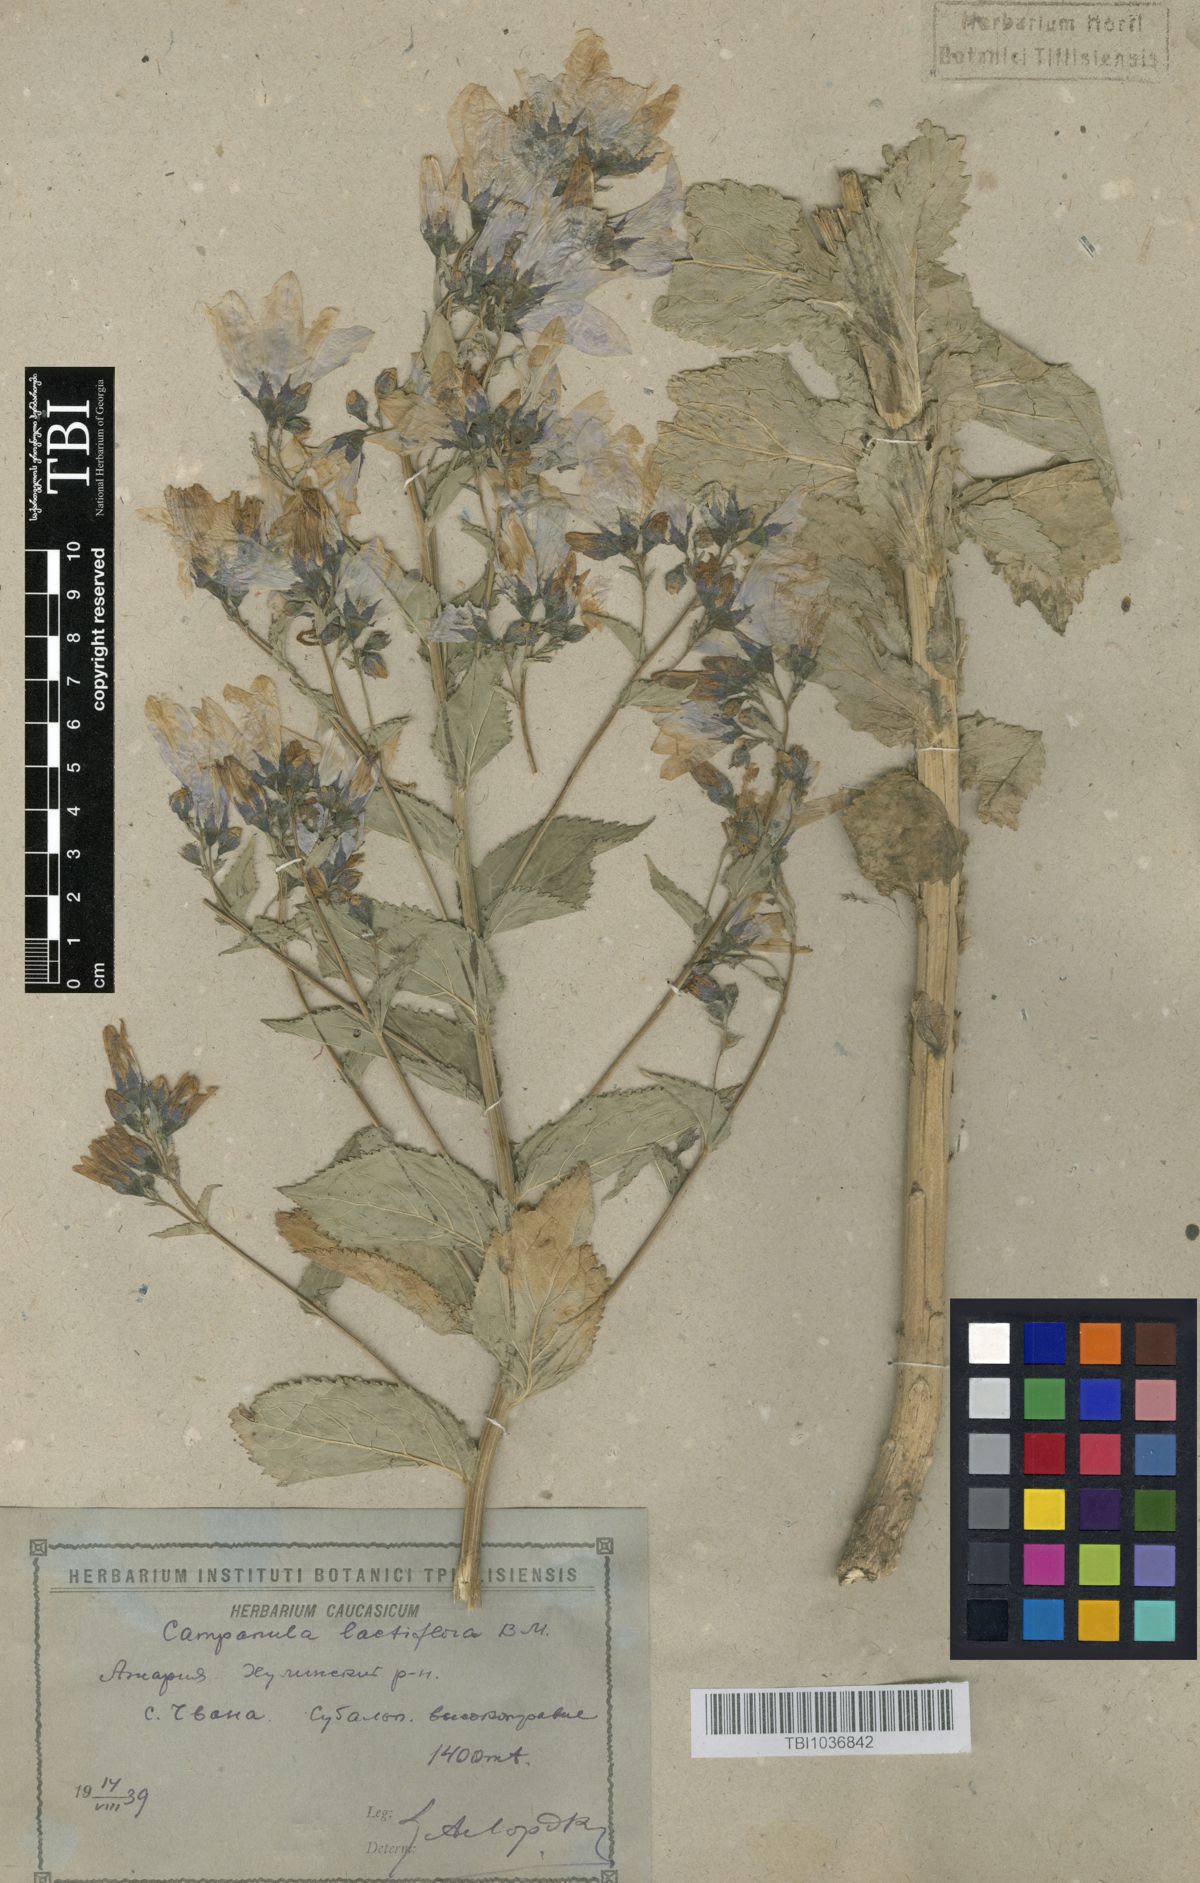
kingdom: Plantae
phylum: Tracheophyta
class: Magnoliopsida
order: Asterales
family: Campanulaceae
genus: Campanula
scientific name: Campanula lactiflora
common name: Milky bellflower
